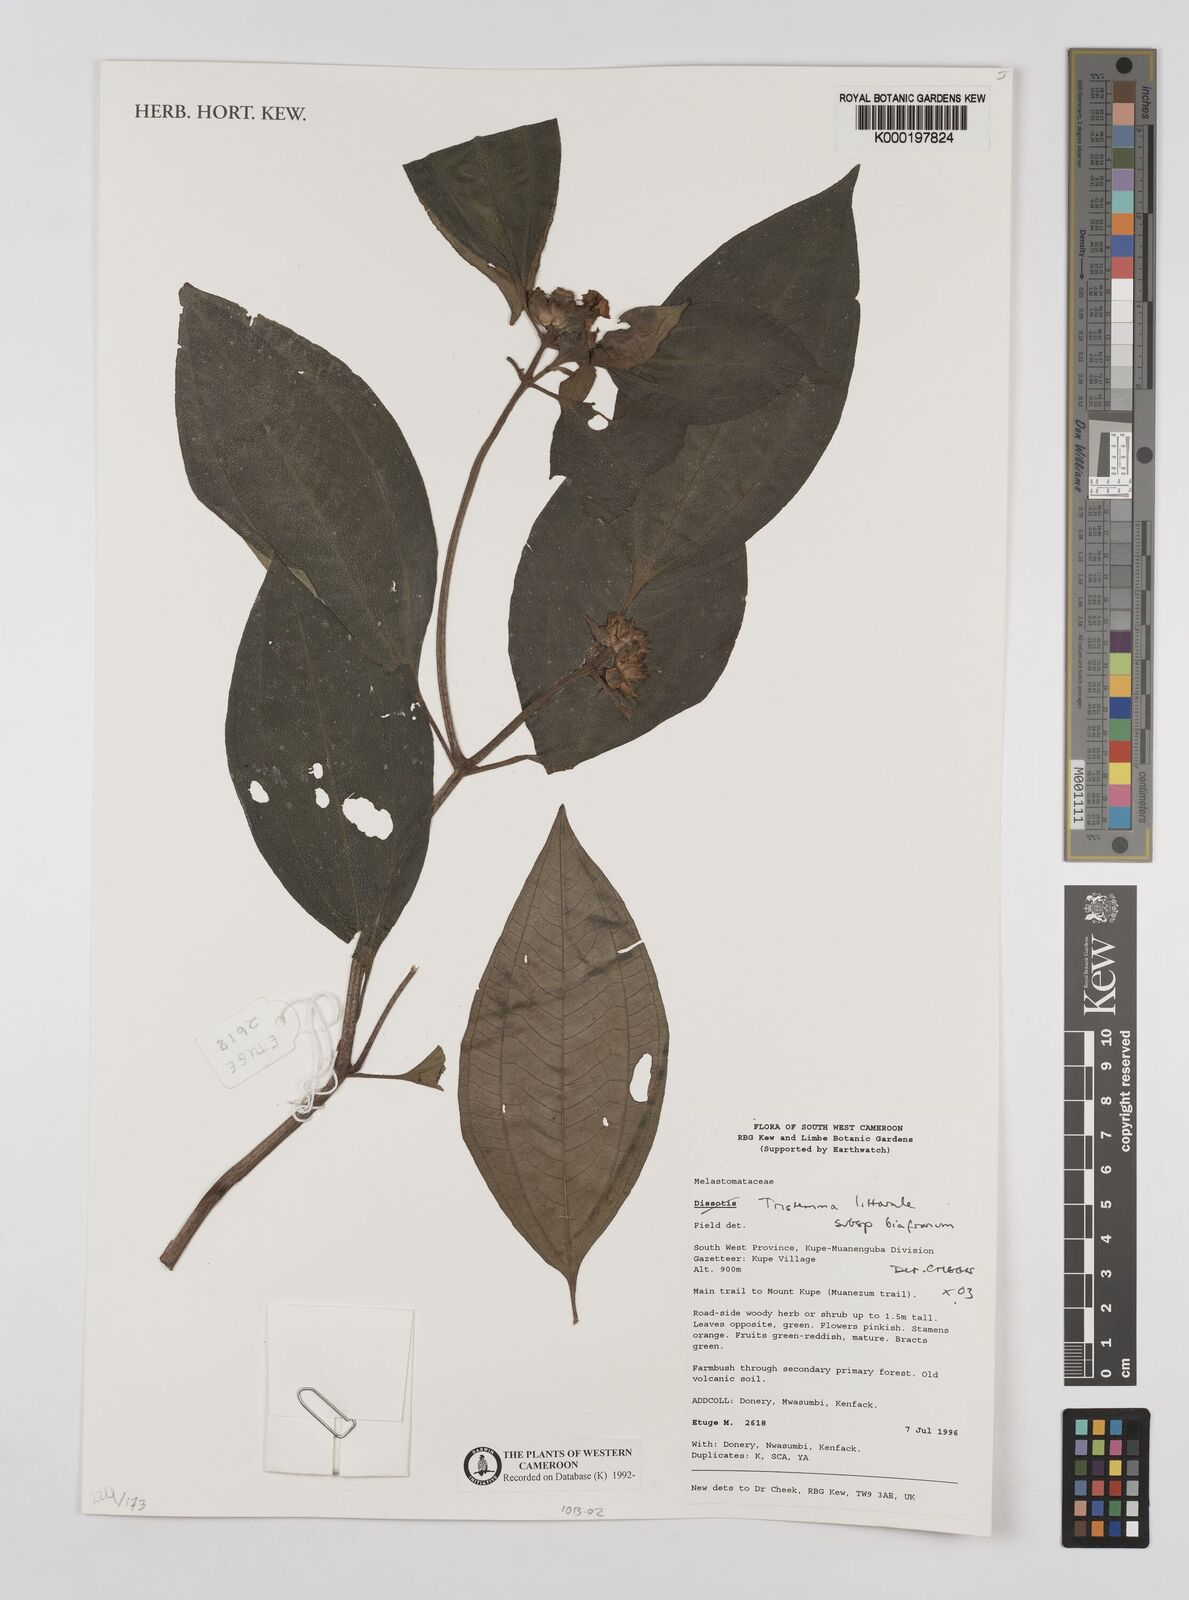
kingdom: Plantae
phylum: Tracheophyta
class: Magnoliopsida
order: Myrtales
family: Melastomataceae
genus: Tristemma
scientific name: Tristemma littorale
